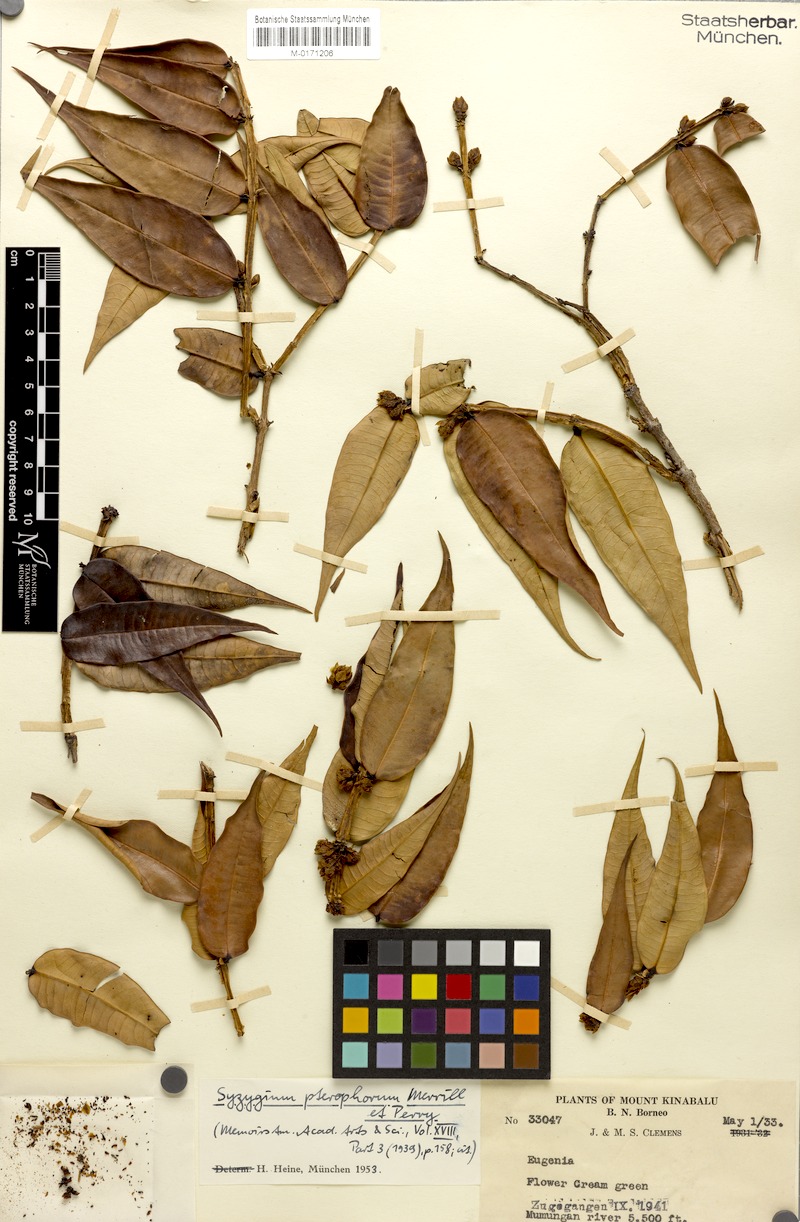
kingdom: Plantae
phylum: Tracheophyta
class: Magnoliopsida
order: Myrtales
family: Myrtaceae
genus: Syzygium
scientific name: Syzygium pterophorum
